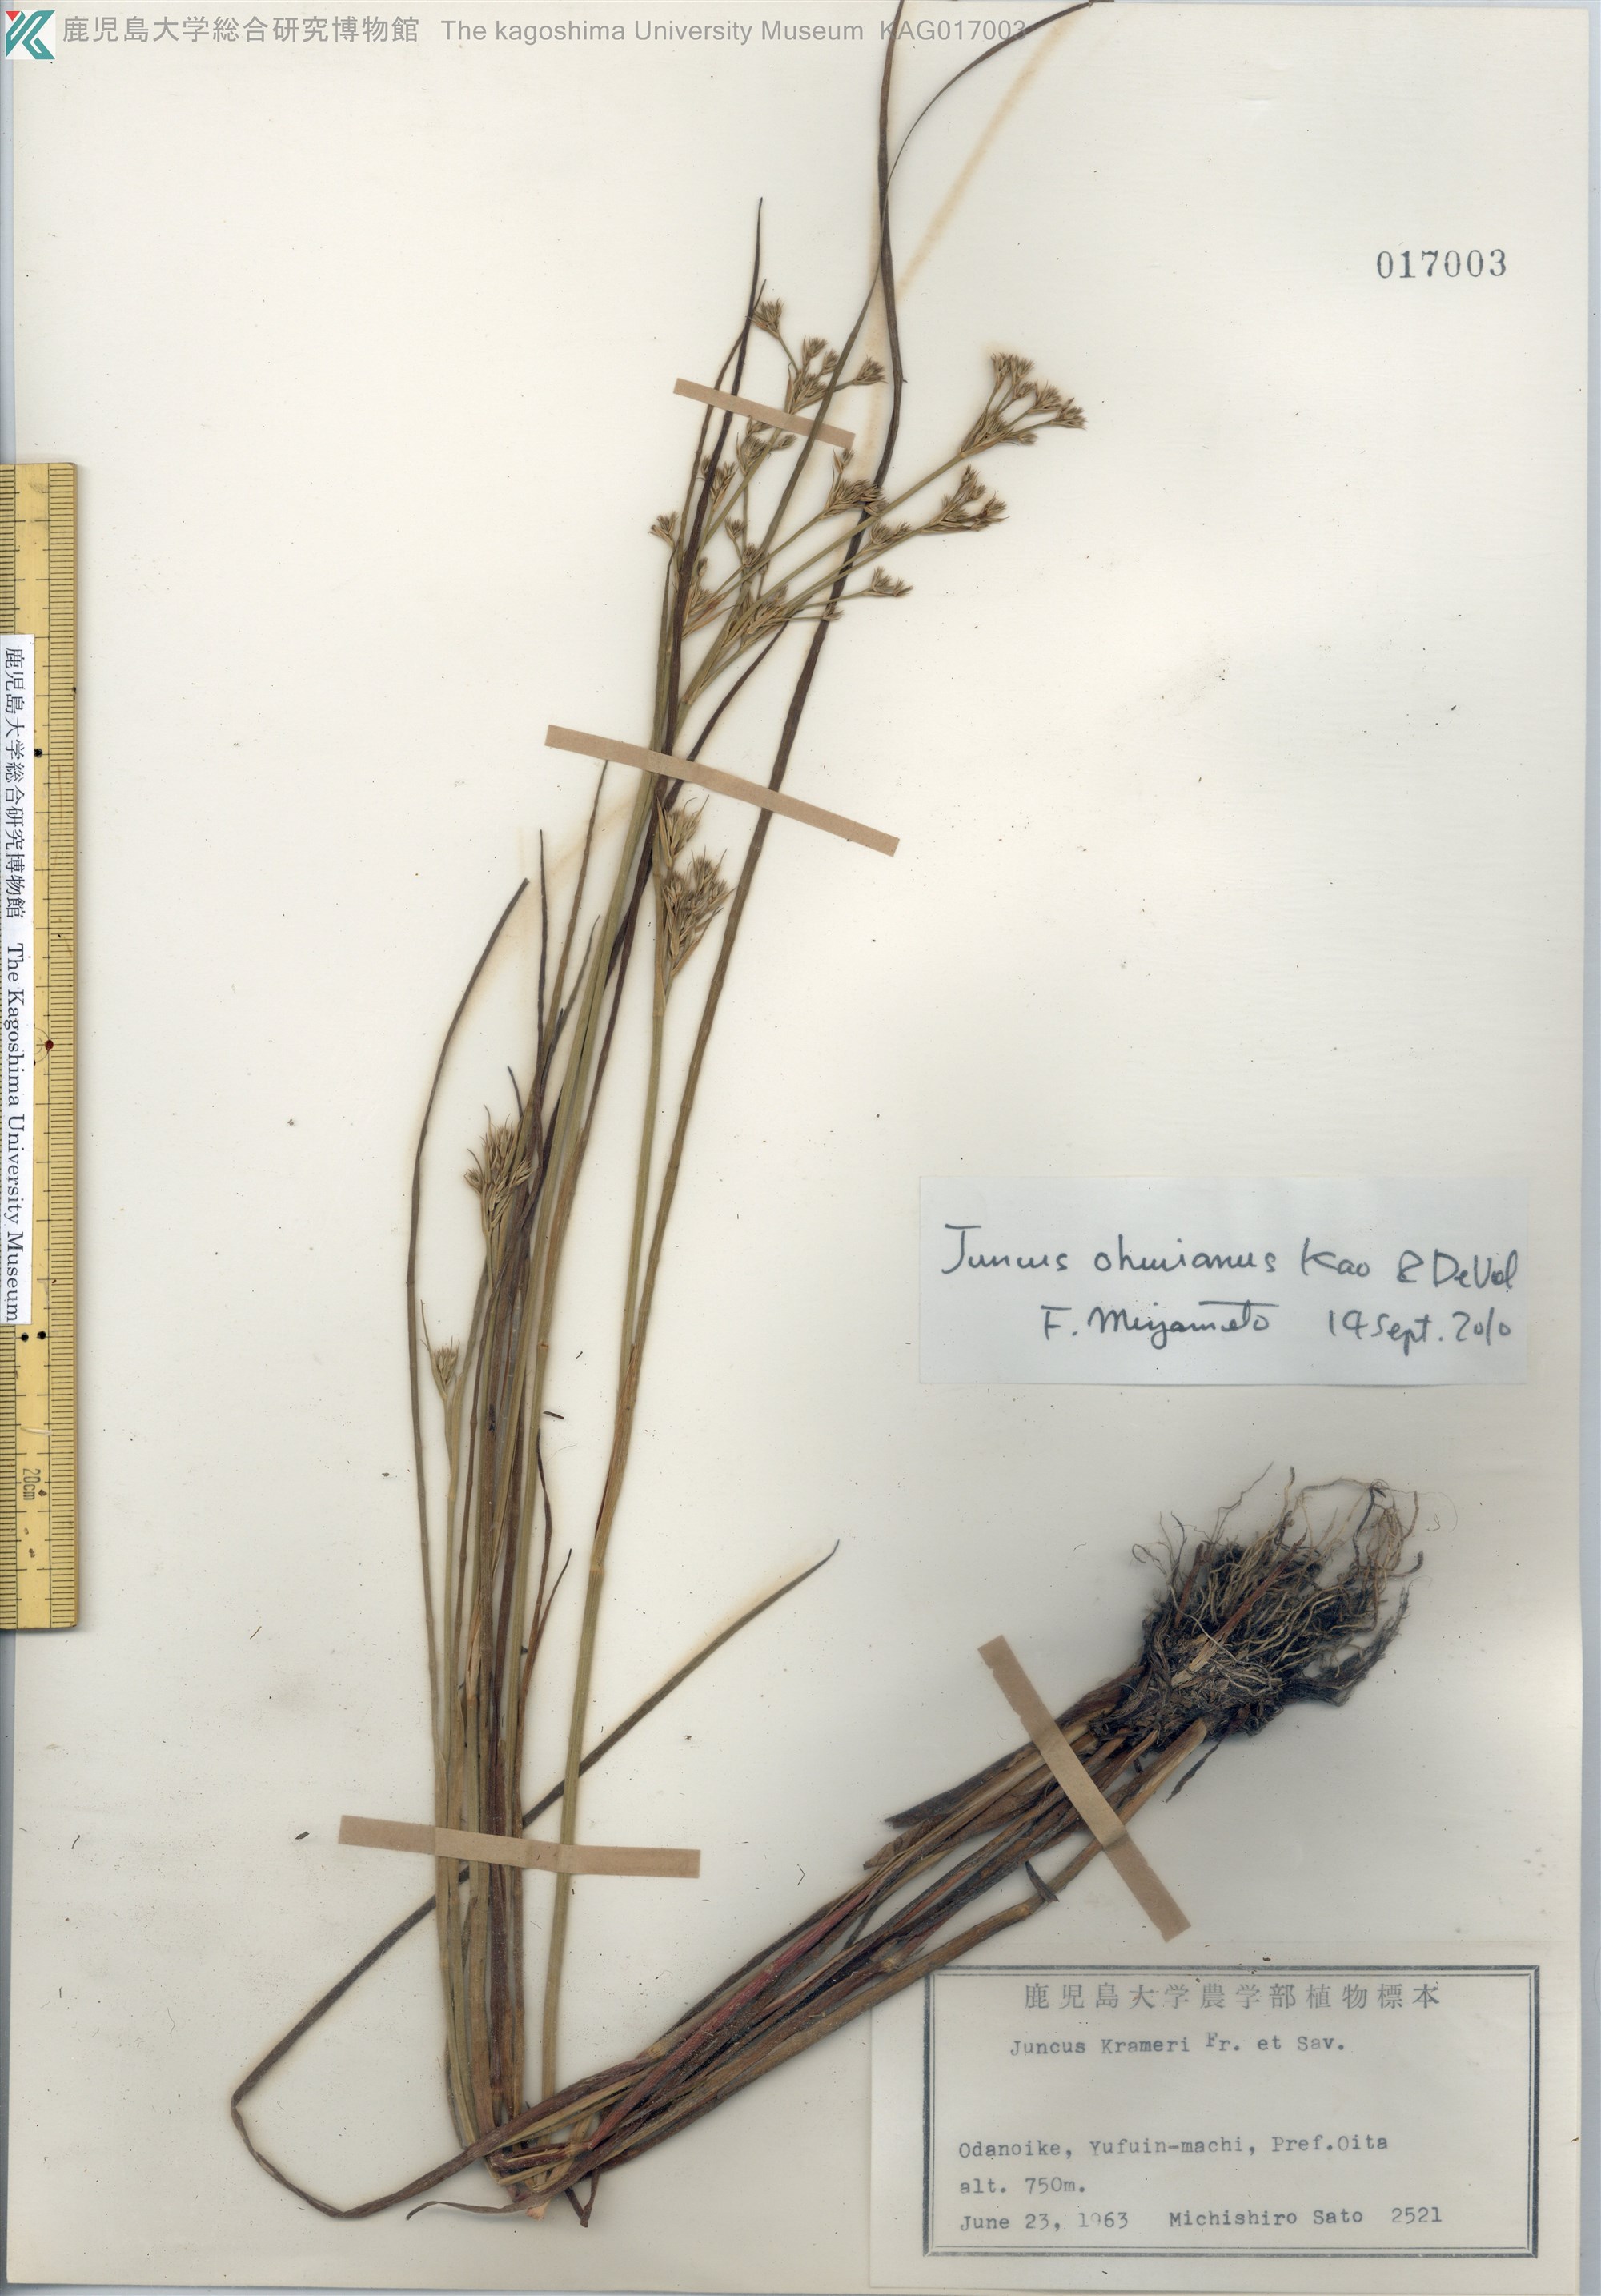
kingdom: Plantae
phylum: Tracheophyta
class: Liliopsida
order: Poales
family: Juncaceae
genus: Juncus
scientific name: Juncus wallichianus
